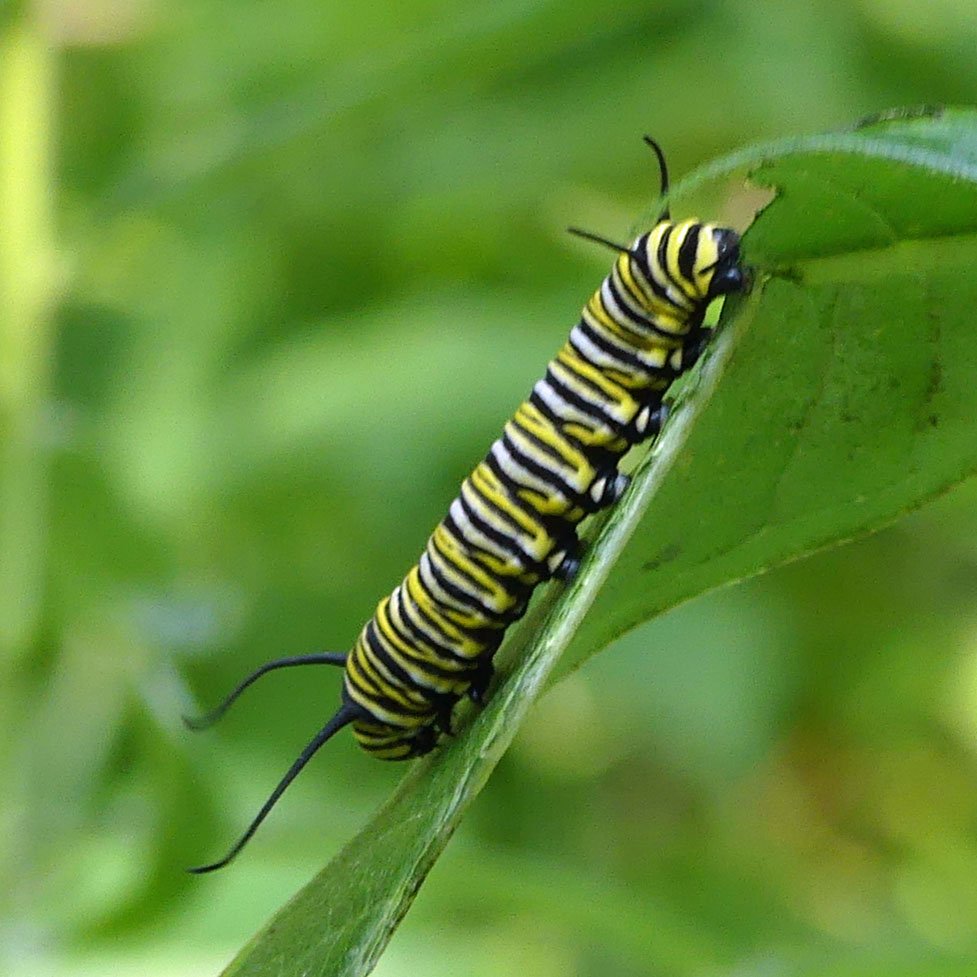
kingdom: Animalia
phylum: Arthropoda
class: Insecta
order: Lepidoptera
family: Nymphalidae
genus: Danaus
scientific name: Danaus plexippus
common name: Monarch
